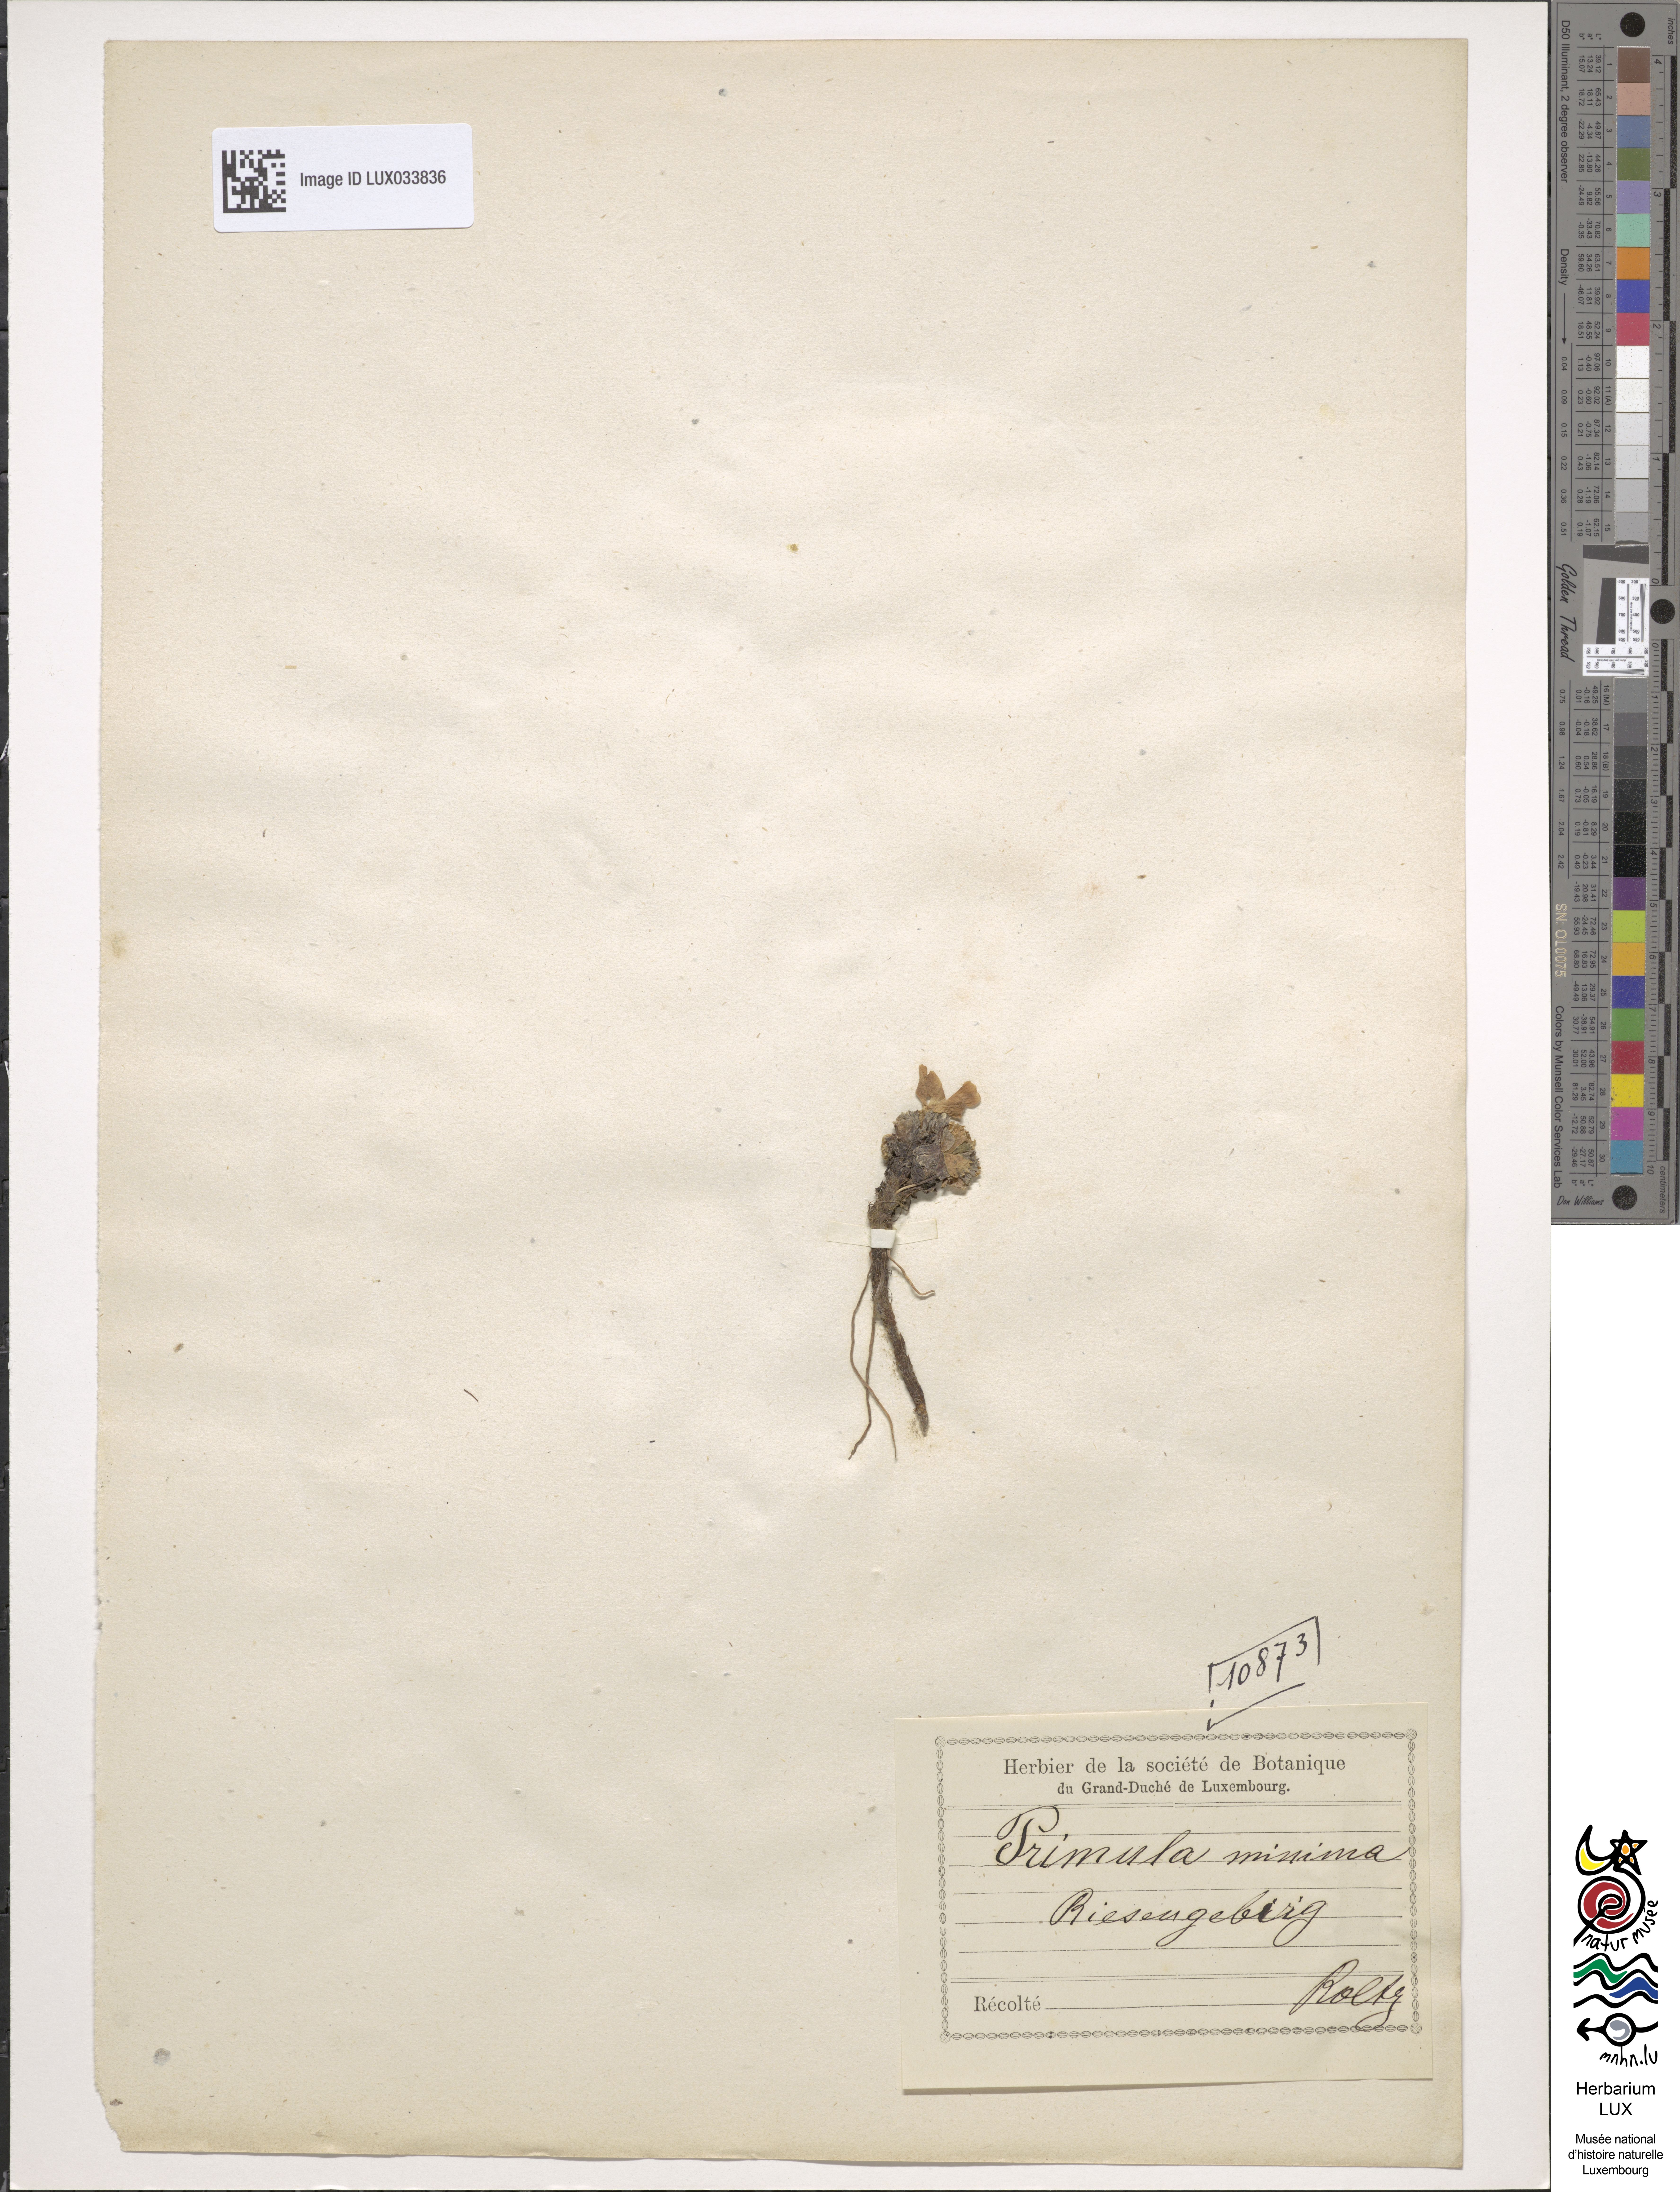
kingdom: Plantae
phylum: Tracheophyta
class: Magnoliopsida
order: Ericales
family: Primulaceae
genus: Primula
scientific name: Primula minima
